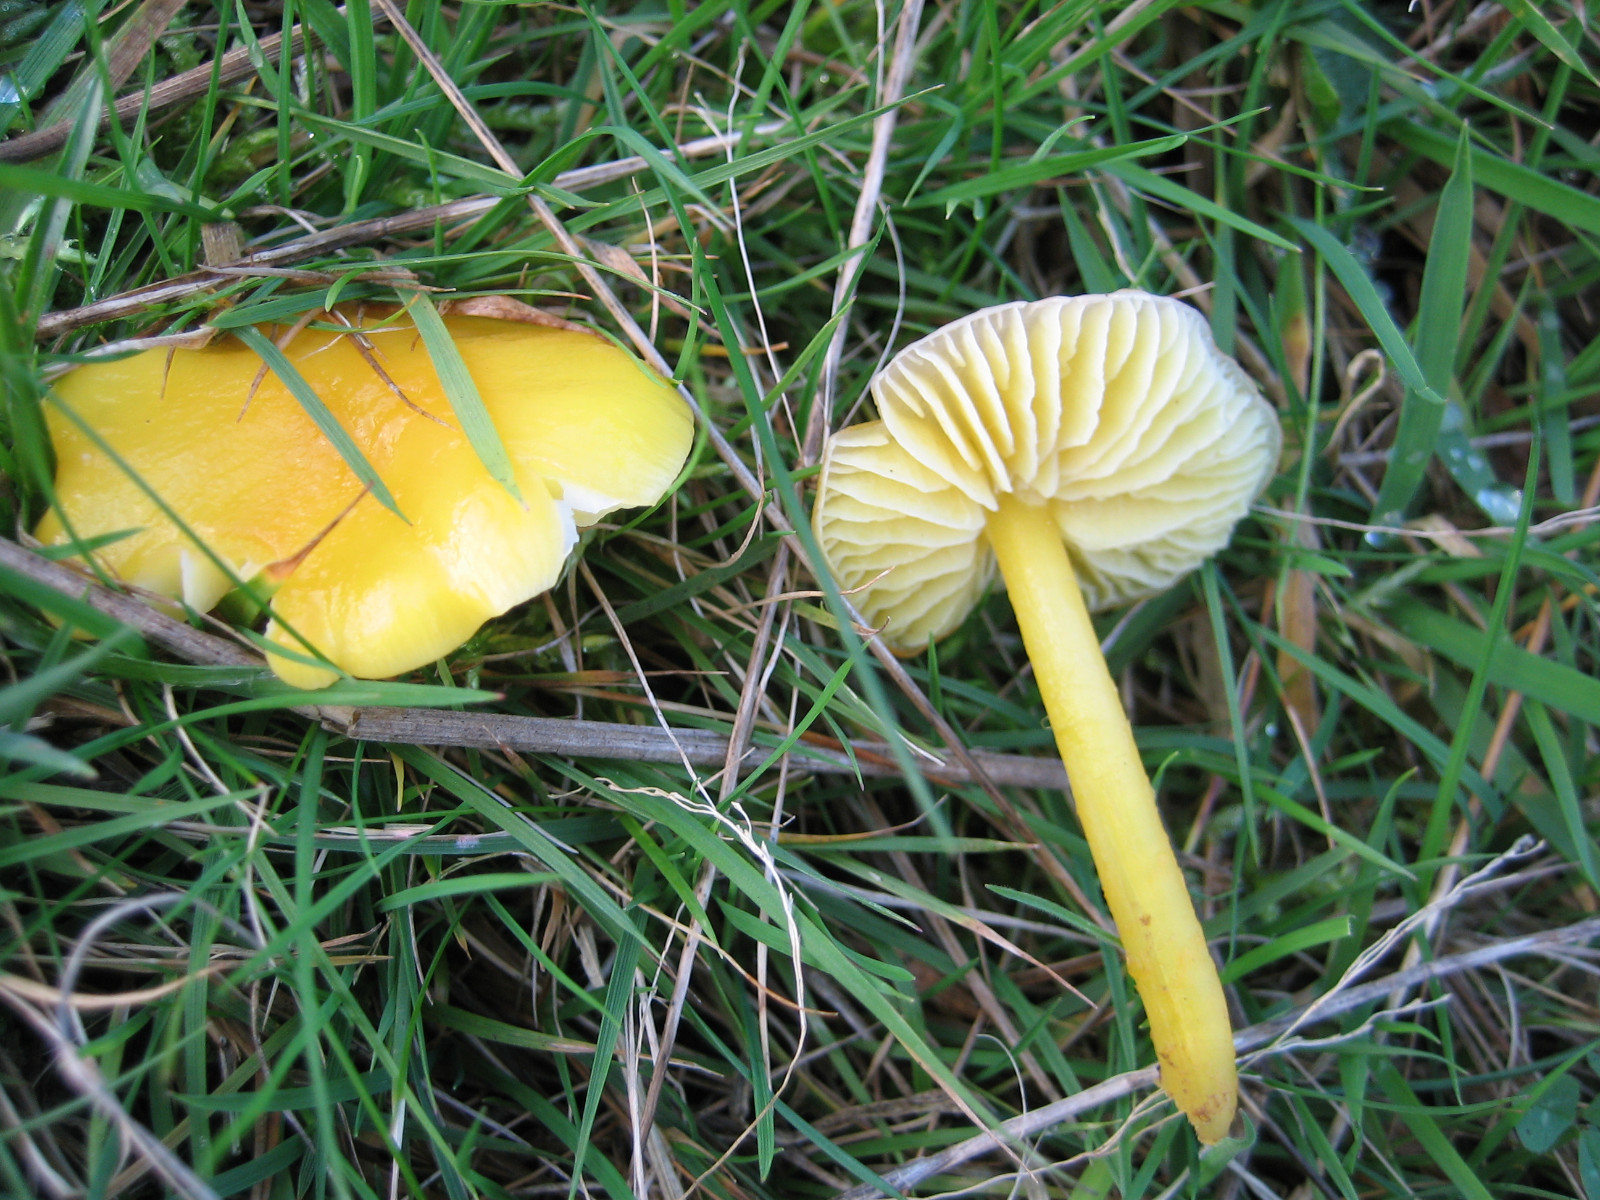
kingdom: Fungi
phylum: Basidiomycota
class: Agaricomycetes
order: Agaricales
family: Hygrophoraceae
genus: Hygrocybe
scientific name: Hygrocybe chlorophana
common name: gul vokshat
